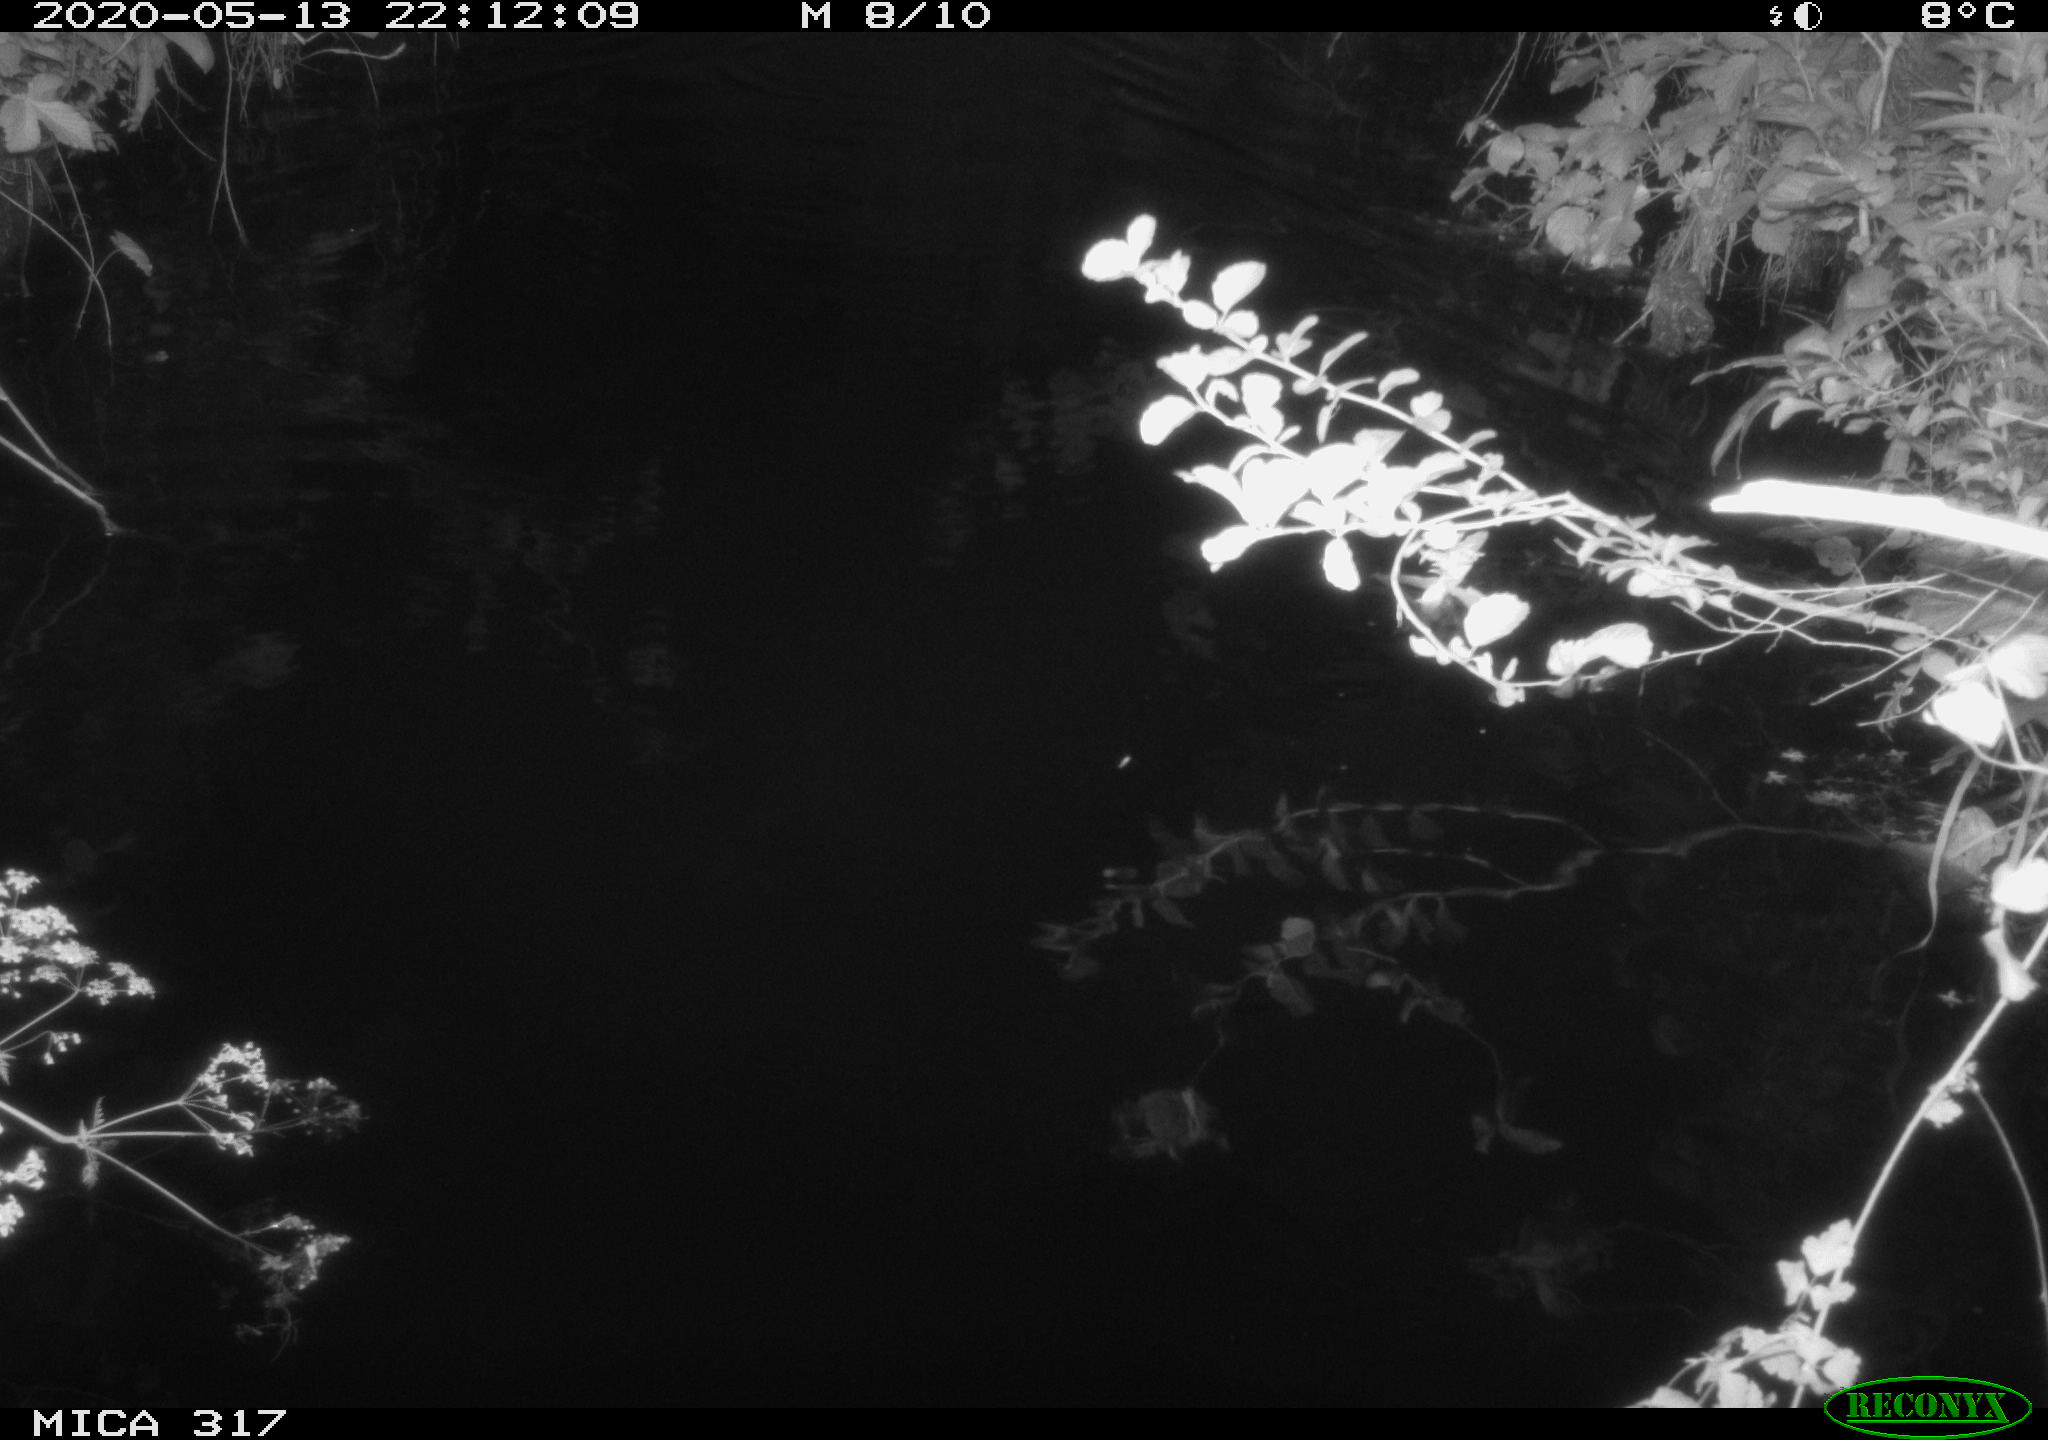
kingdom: Animalia
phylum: Chordata
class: Aves
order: Anseriformes
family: Anatidae
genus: Anas
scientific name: Anas platyrhynchos
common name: Mallard
